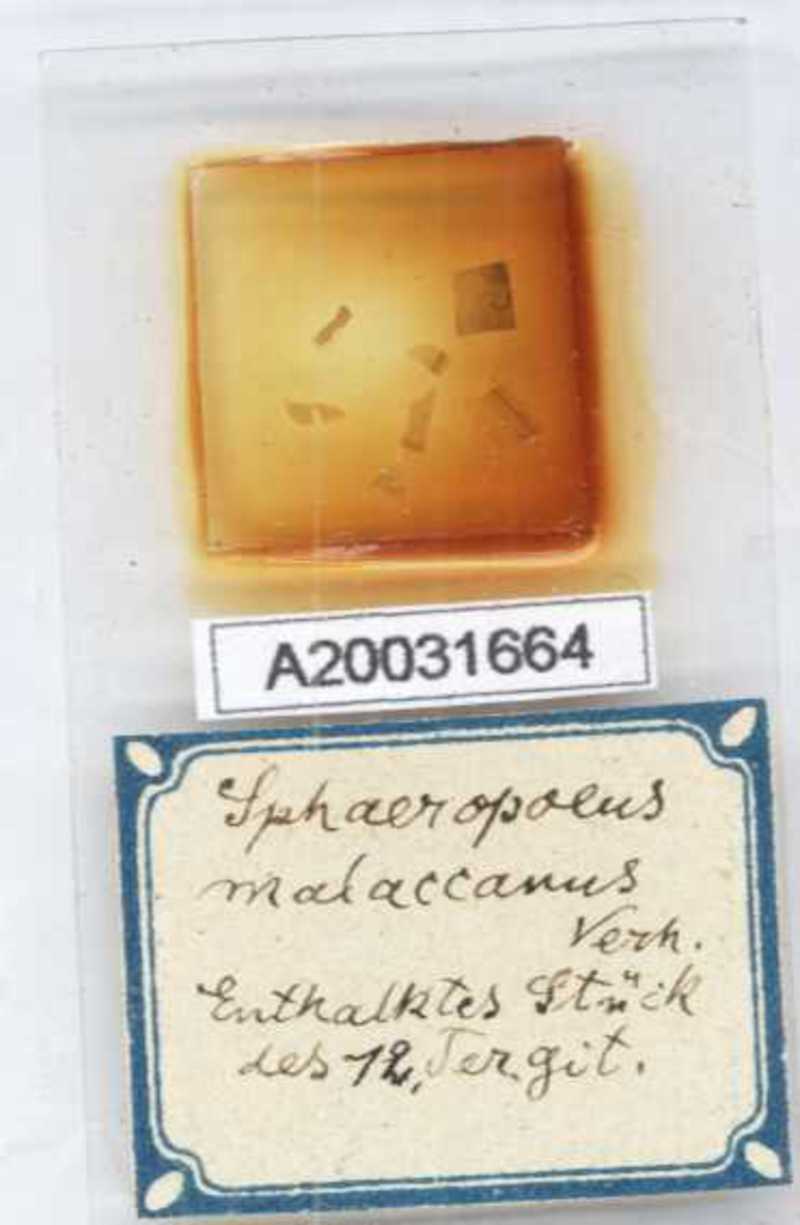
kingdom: Animalia
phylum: Arthropoda
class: Diplopoda
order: Sphaerotheriida
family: Zephroniidae
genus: Sphaeropoeus
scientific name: Sphaeropoeus malaccanus
